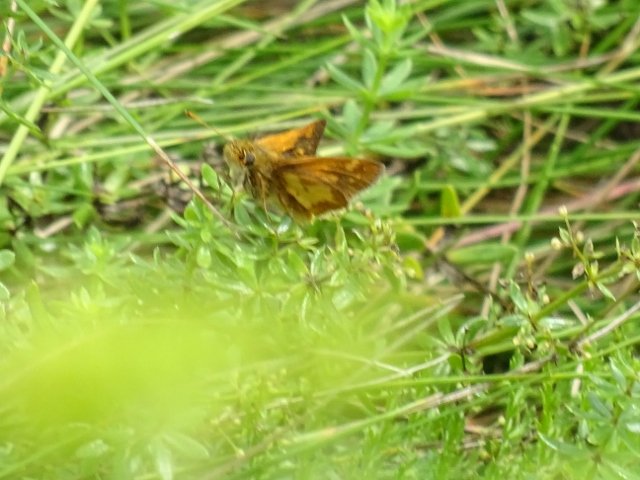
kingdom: Animalia
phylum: Arthropoda
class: Insecta
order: Lepidoptera
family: Hesperiidae
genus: Polites
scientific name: Polites coras
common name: Peck's Skipper
